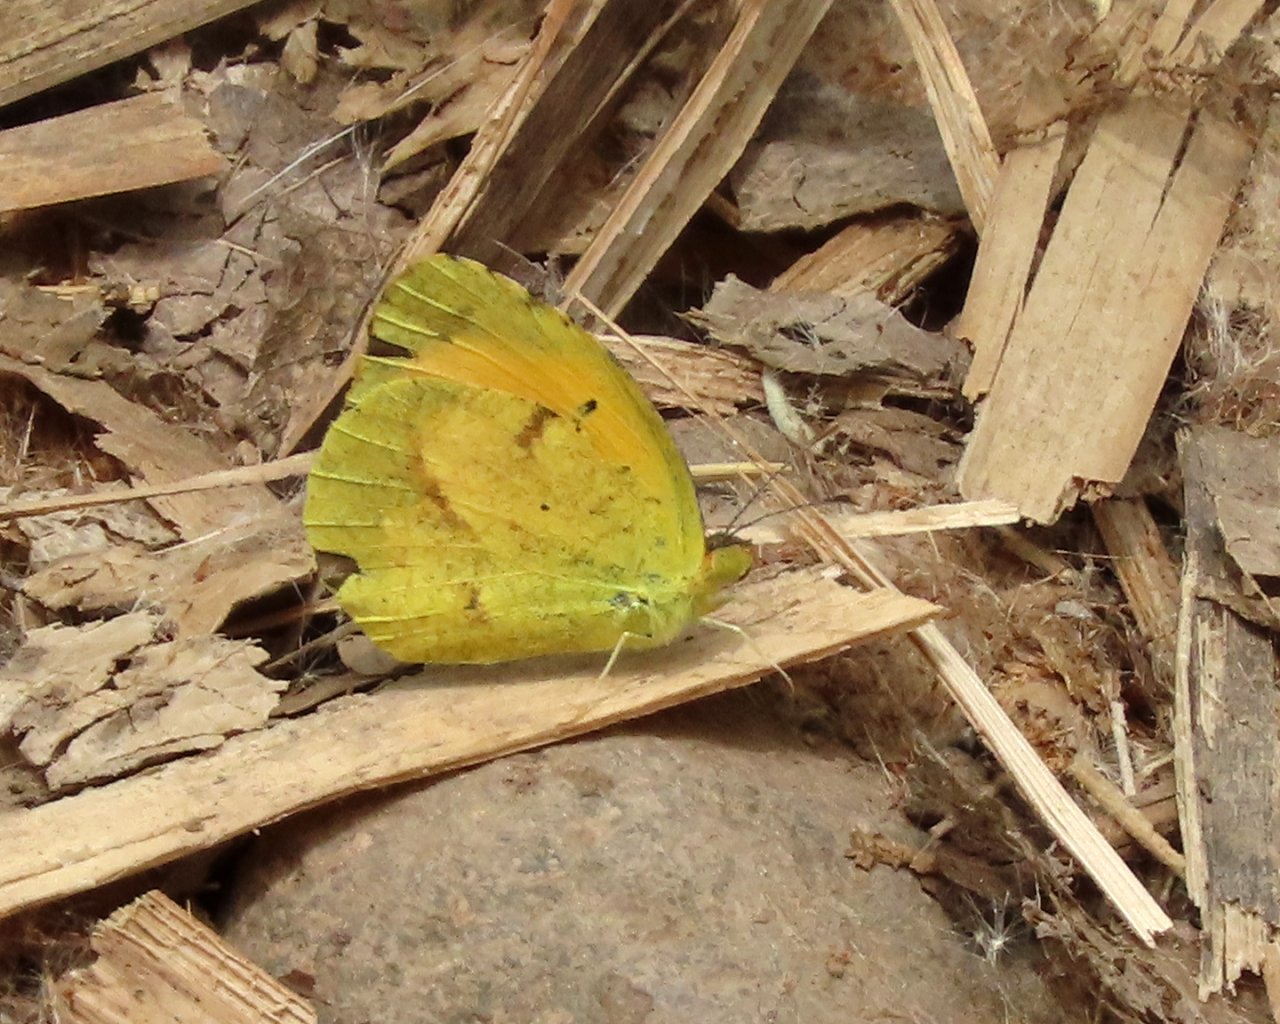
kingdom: Animalia
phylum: Arthropoda
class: Insecta
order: Lepidoptera
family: Pieridae
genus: Abaeis
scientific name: Abaeis nicippe
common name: Sleepy Orange
